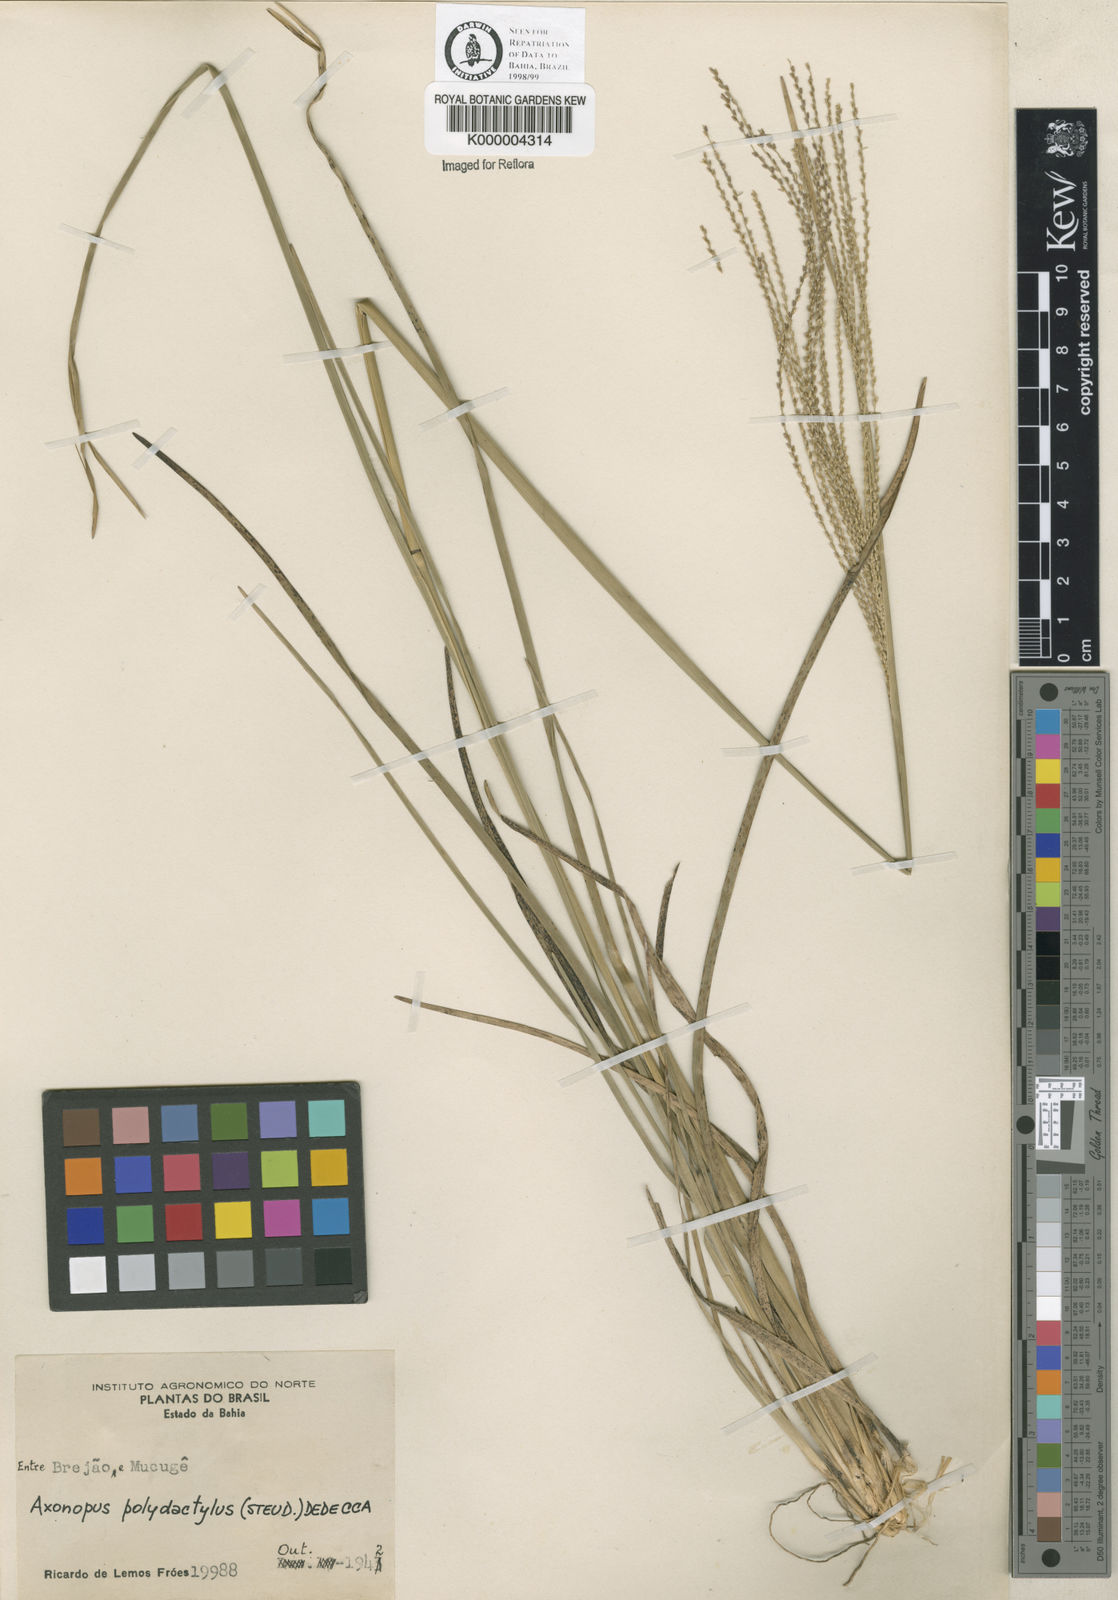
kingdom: Plantae
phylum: Tracheophyta
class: Liliopsida
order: Poales
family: Poaceae
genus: Axonopus
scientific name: Axonopus polydactylus
